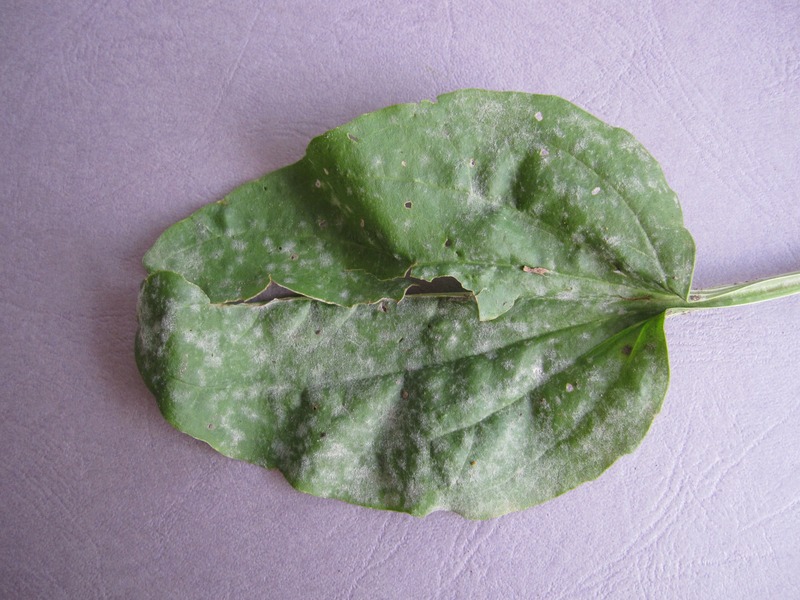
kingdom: Fungi
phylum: Ascomycota
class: Leotiomycetes
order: Helotiales
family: Erysiphaceae
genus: Golovinomyces
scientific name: Golovinomyces sordidus
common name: Plantain mildew
